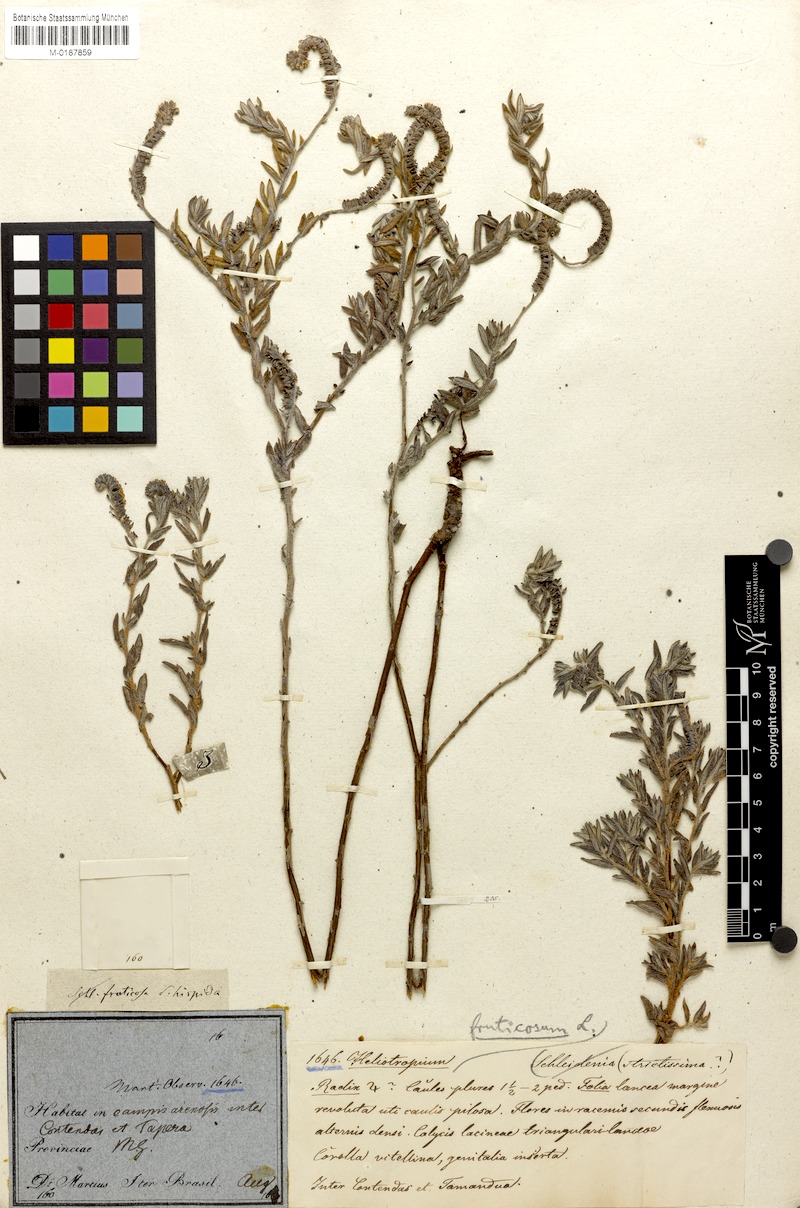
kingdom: Plantae
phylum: Tracheophyta
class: Magnoliopsida
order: Boraginales
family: Heliotropiaceae
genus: Euploca
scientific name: Euploca fruticosa
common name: Key west heliotrope
